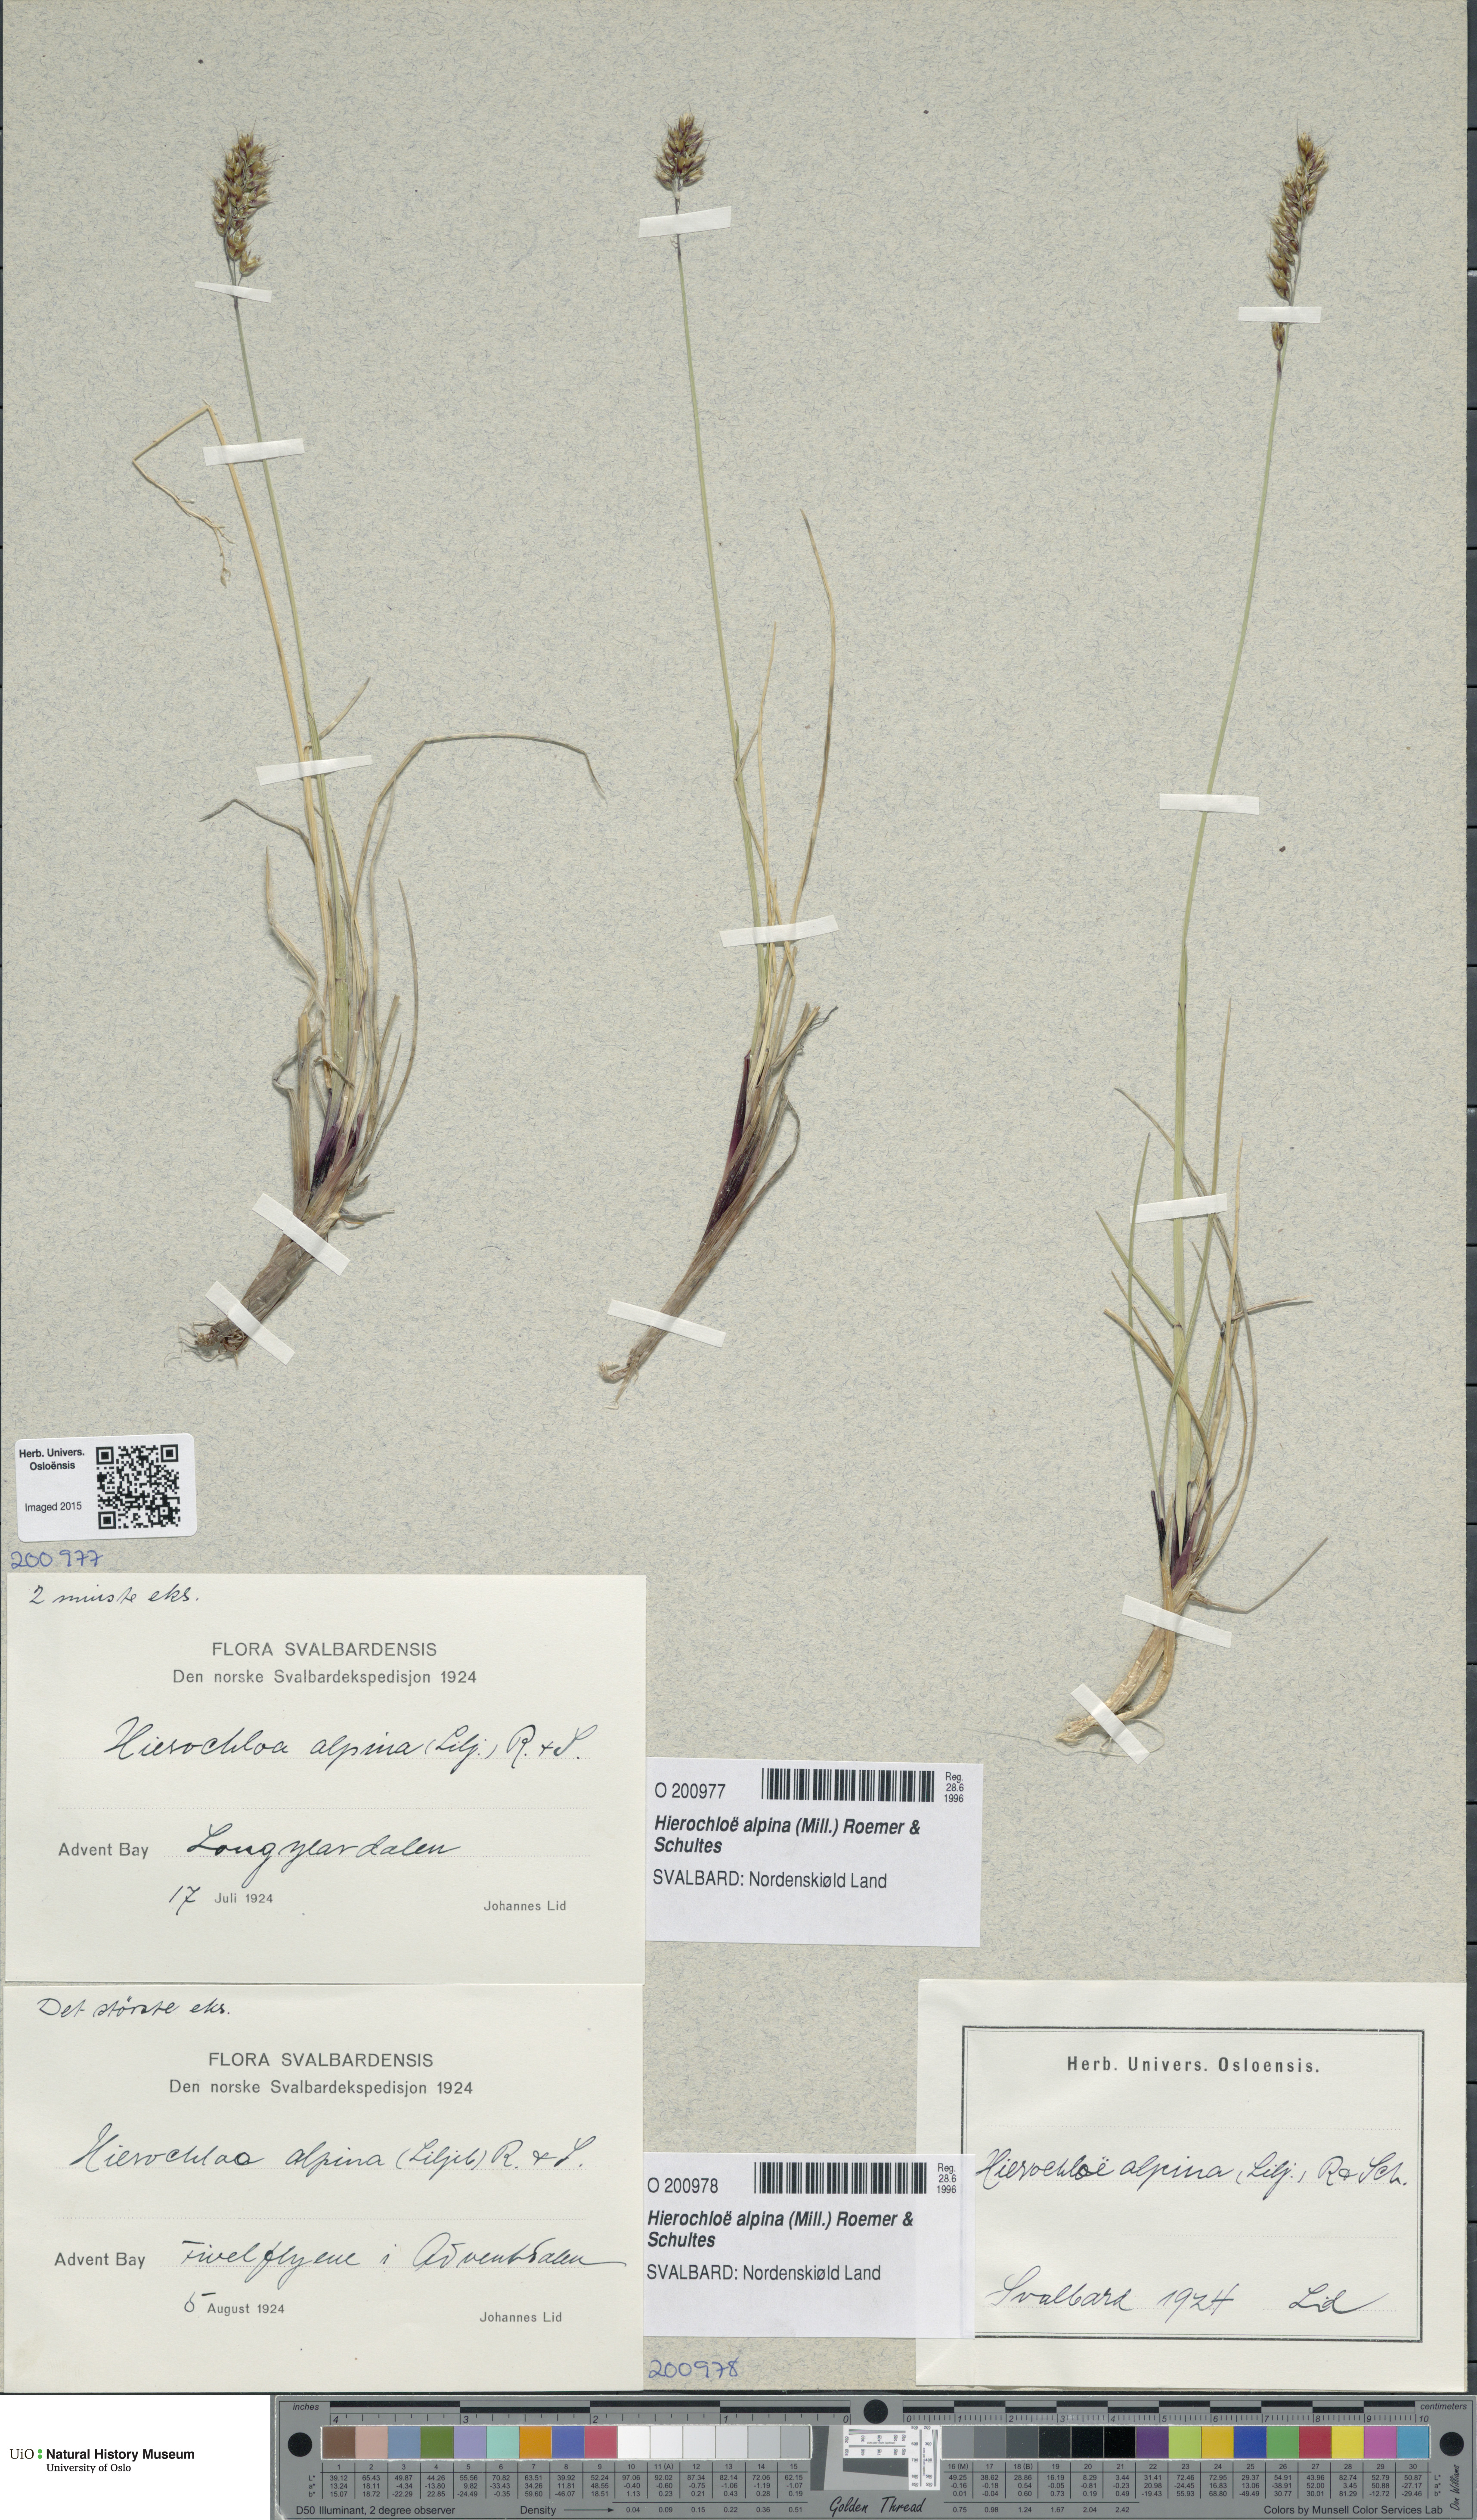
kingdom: Plantae
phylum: Tracheophyta
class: Liliopsida
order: Poales
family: Poaceae
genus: Anthoxanthum
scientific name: Anthoxanthum monticola
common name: Alpine sweetgrass
